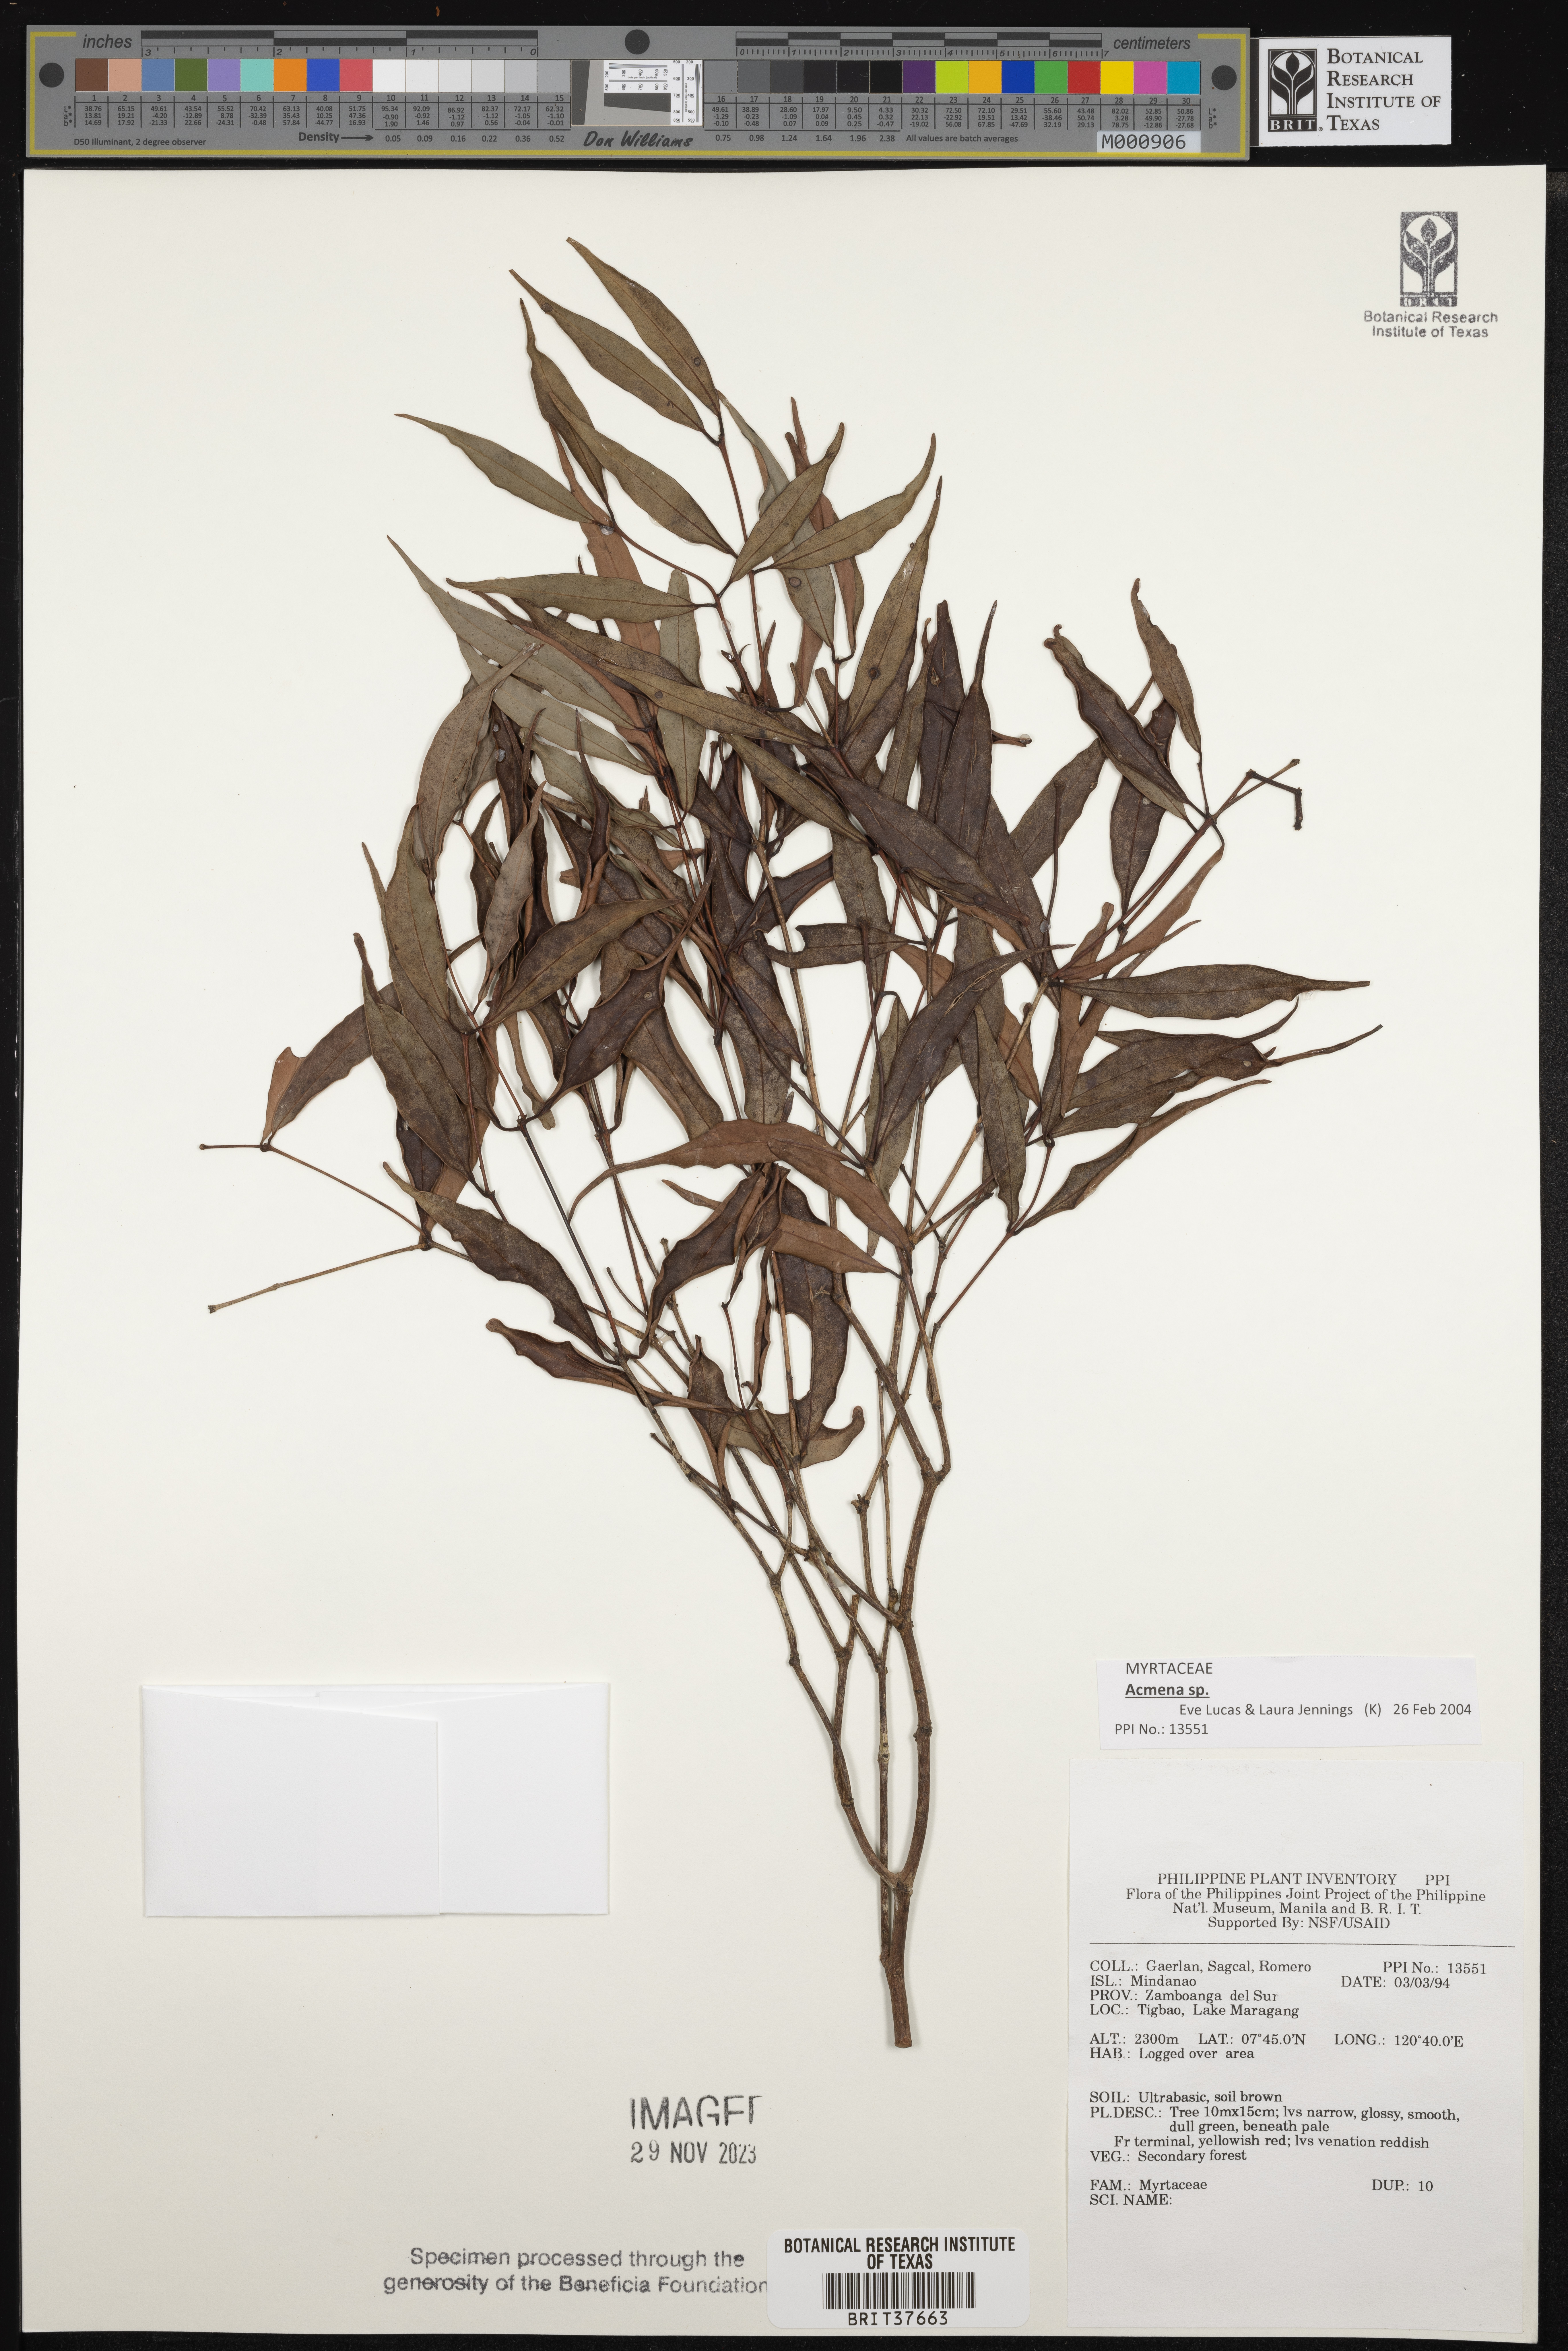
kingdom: Plantae
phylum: Tracheophyta
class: Magnoliopsida
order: Myrtales
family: Myrtaceae
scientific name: Myrtaceae
